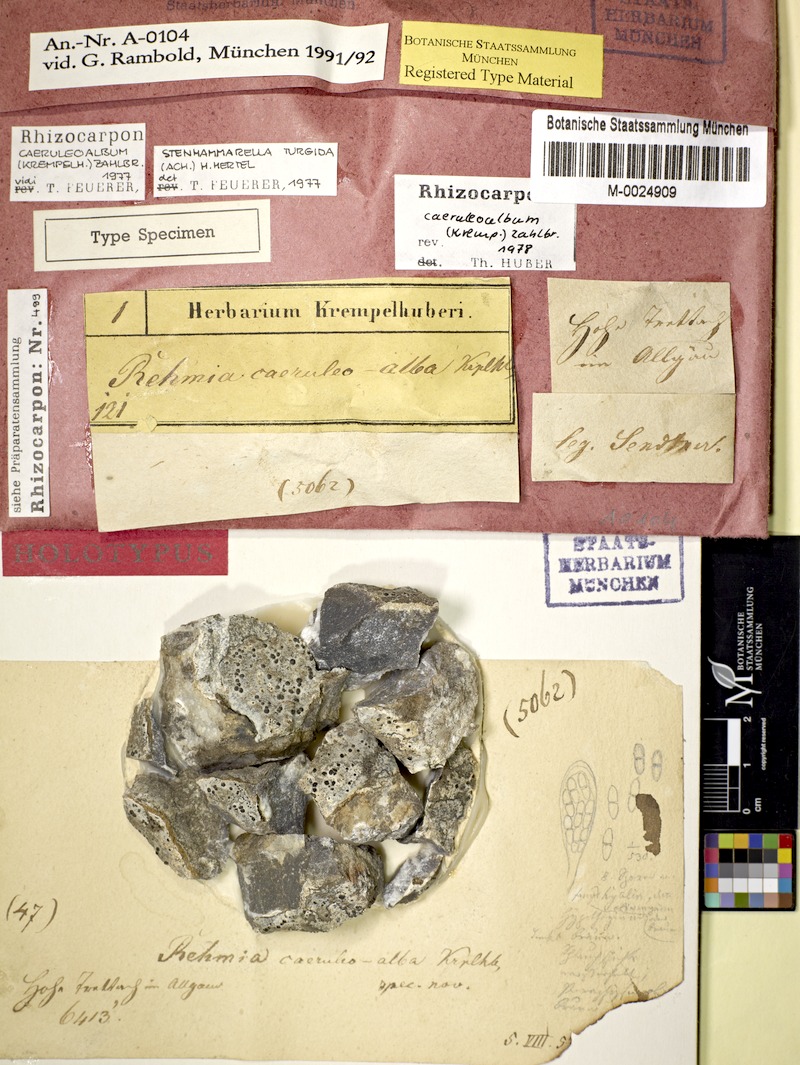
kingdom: Fungi
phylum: Ascomycota
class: Lecanoromycetes
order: Rhizocarpales
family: Rhizocarpaceae
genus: Rhizocarpon
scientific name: Rhizocarpon caeruleoalbum
